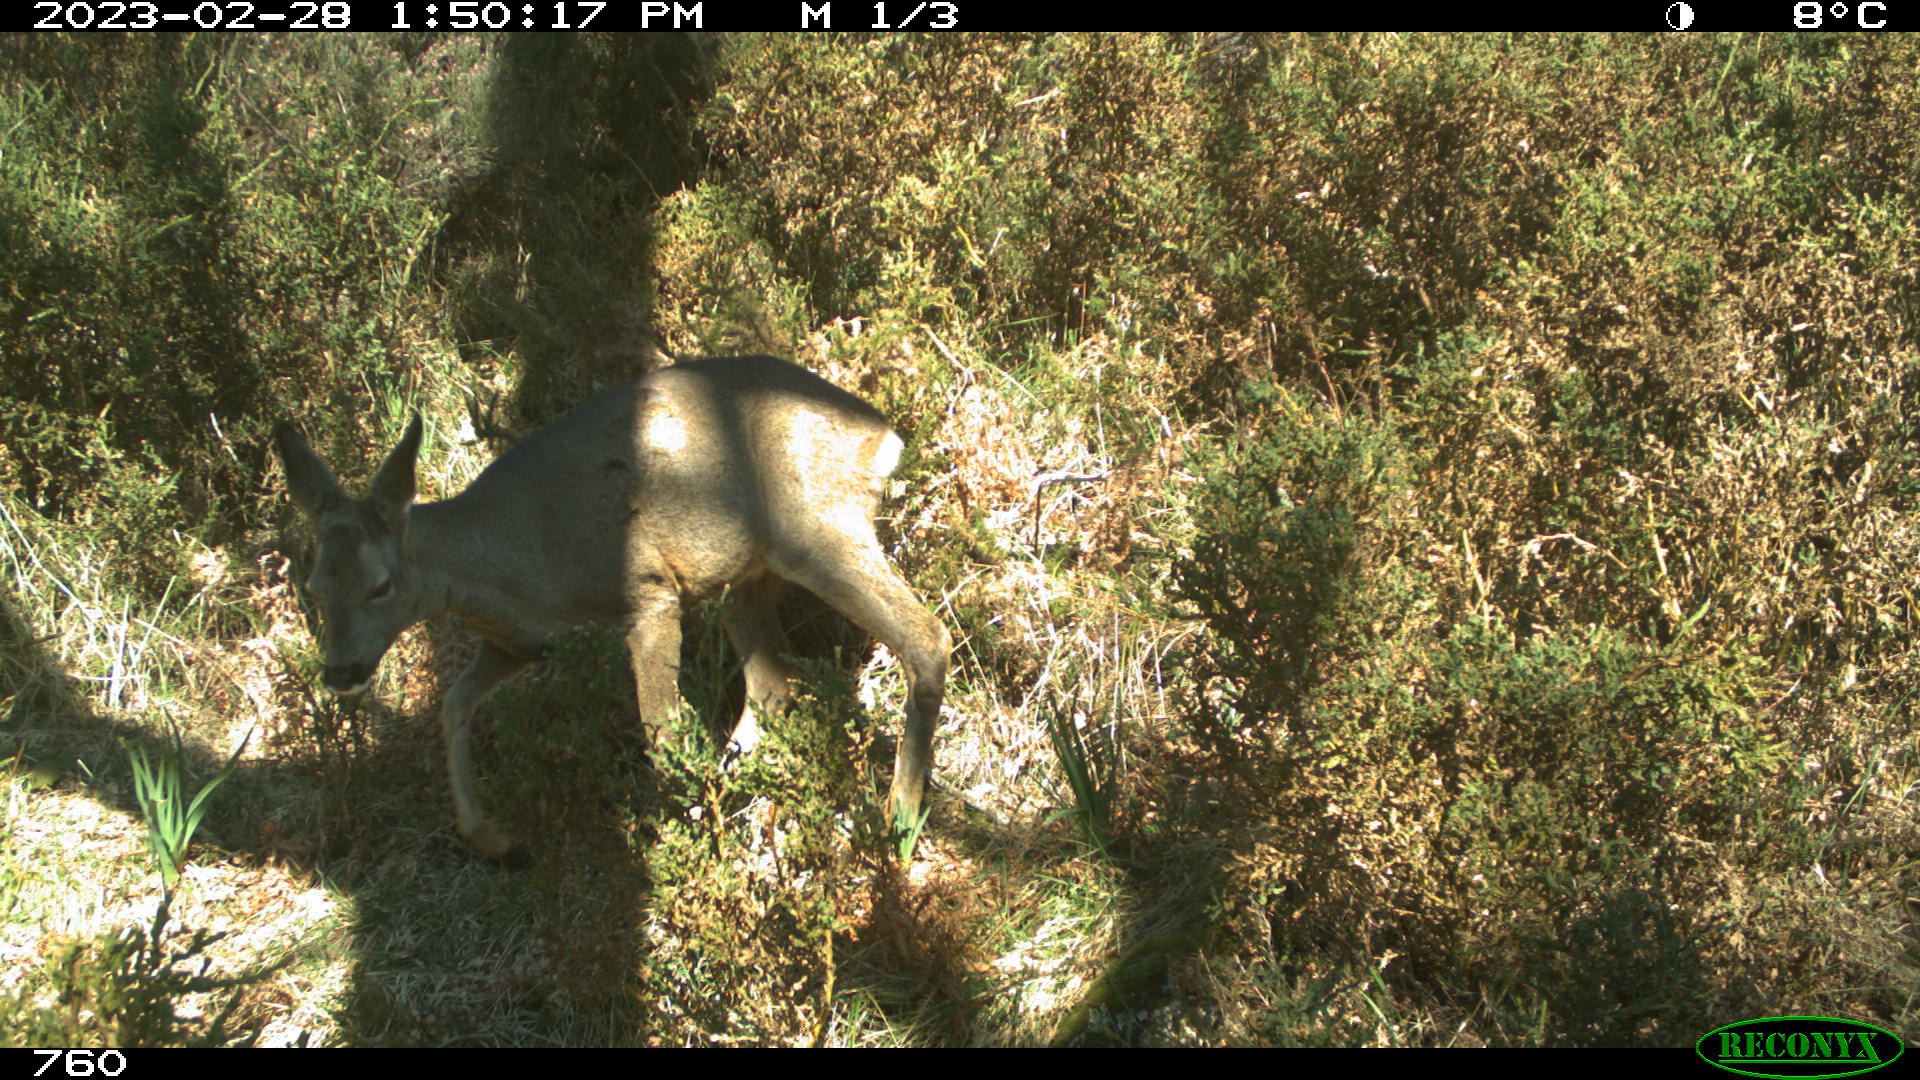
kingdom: Animalia
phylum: Chordata
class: Mammalia
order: Artiodactyla
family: Cervidae
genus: Capreolus
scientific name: Capreolus capreolus
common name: Western roe deer
